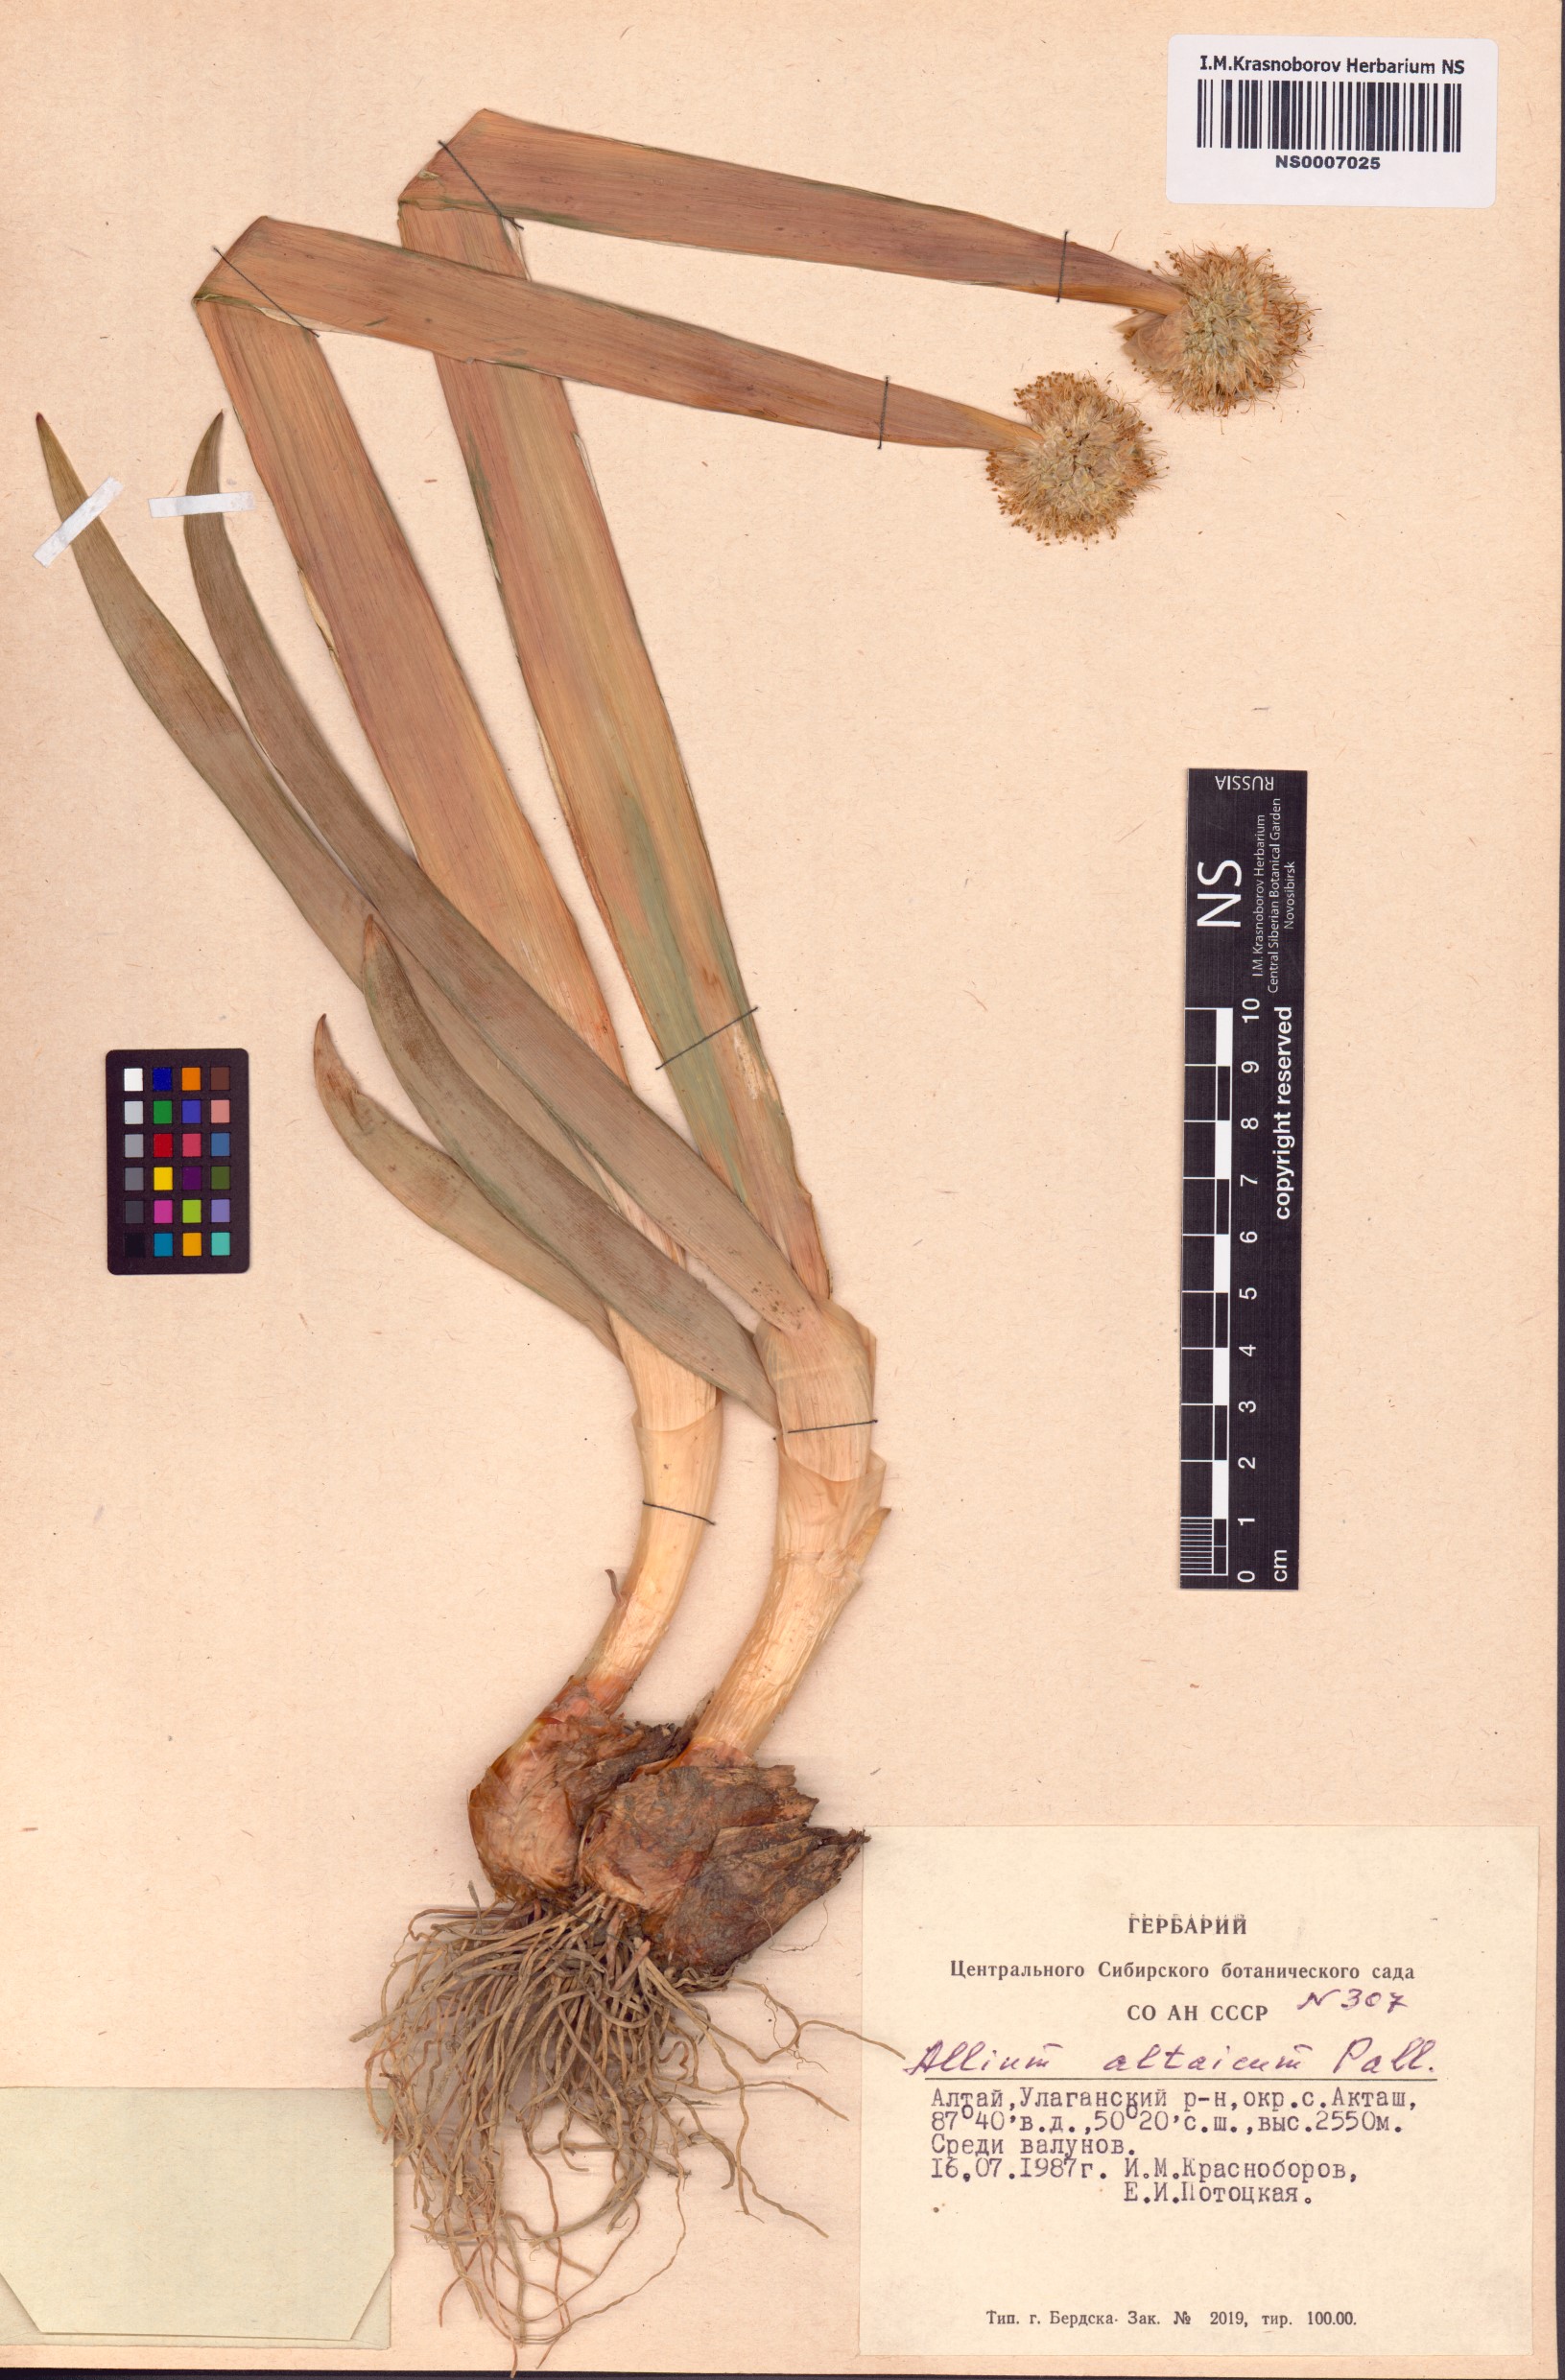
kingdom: Plantae
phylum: Tracheophyta
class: Liliopsida
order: Asparagales
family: Amaryllidaceae
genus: Allium
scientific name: Allium altaicum
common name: Altai onion
